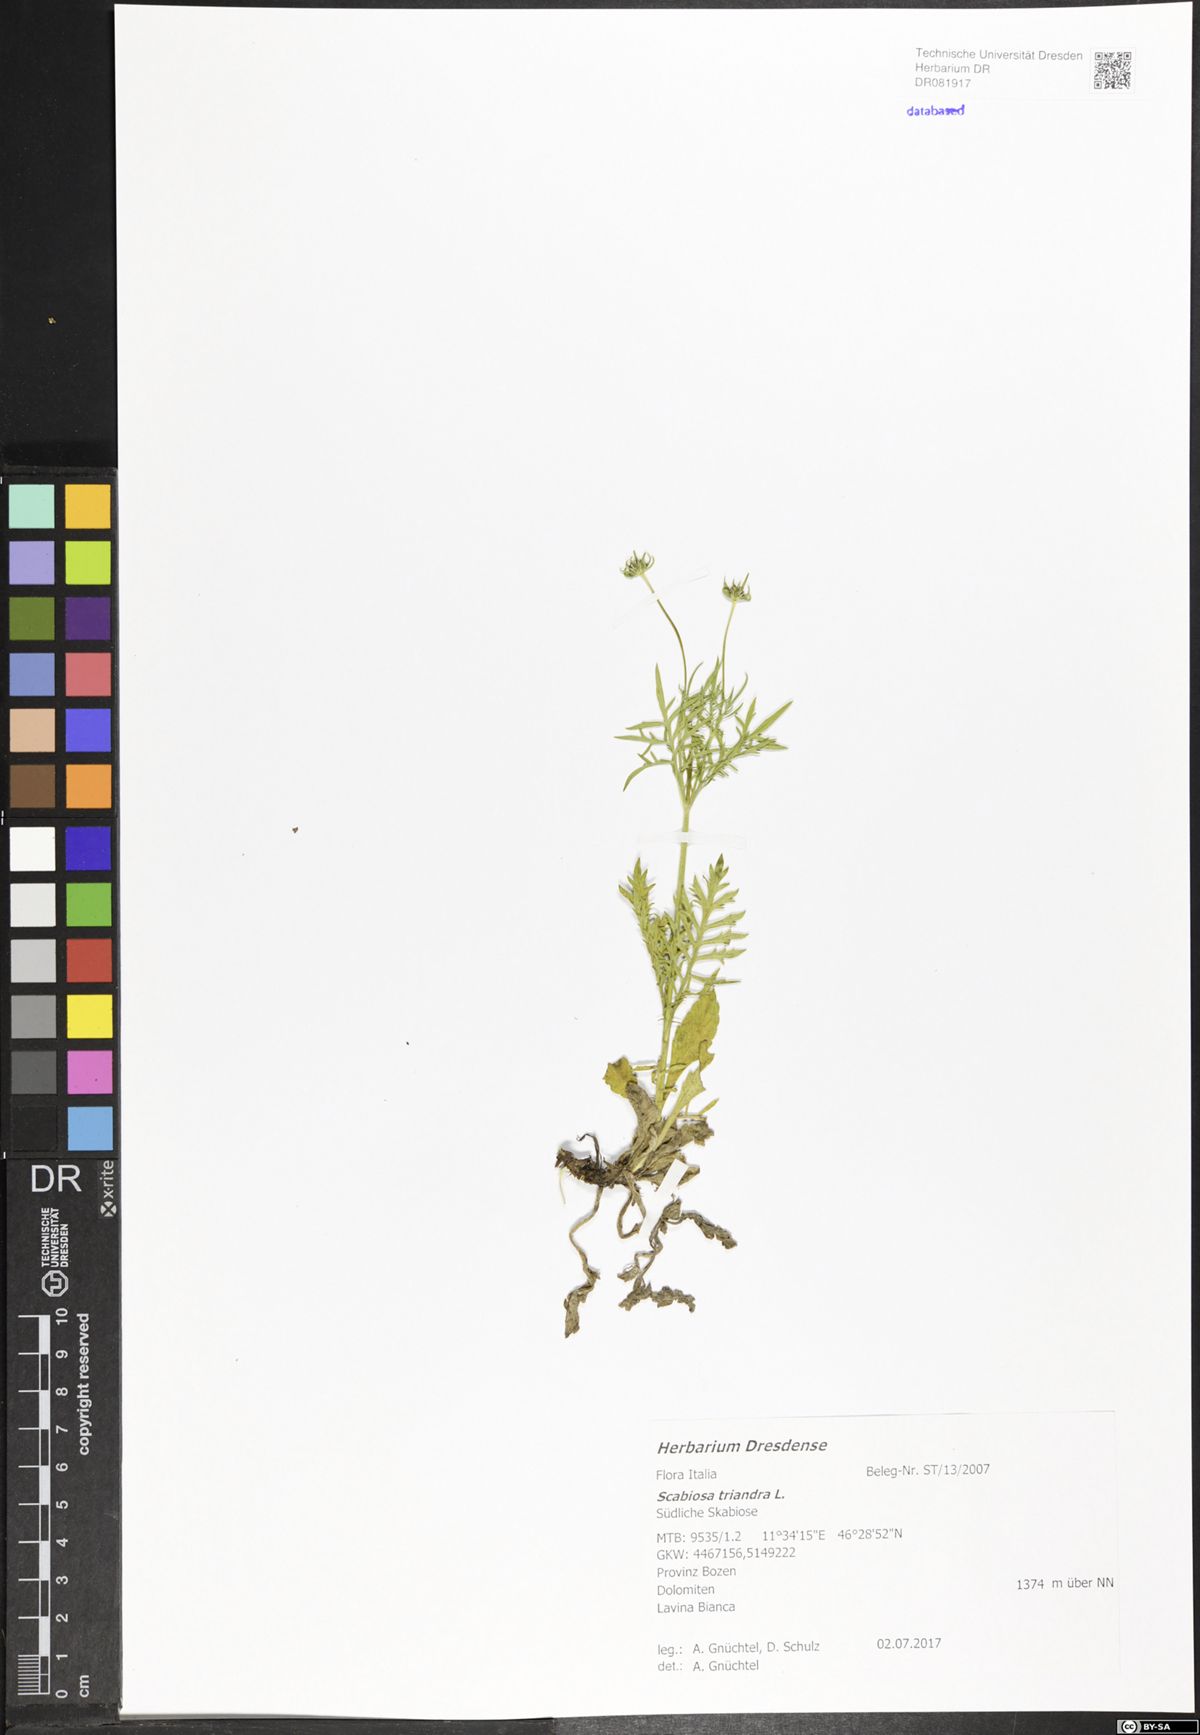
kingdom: Plantae
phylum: Tracheophyta
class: Magnoliopsida
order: Dipsacales
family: Caprifoliaceae
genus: Scabiosa
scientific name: Scabiosa triandra
